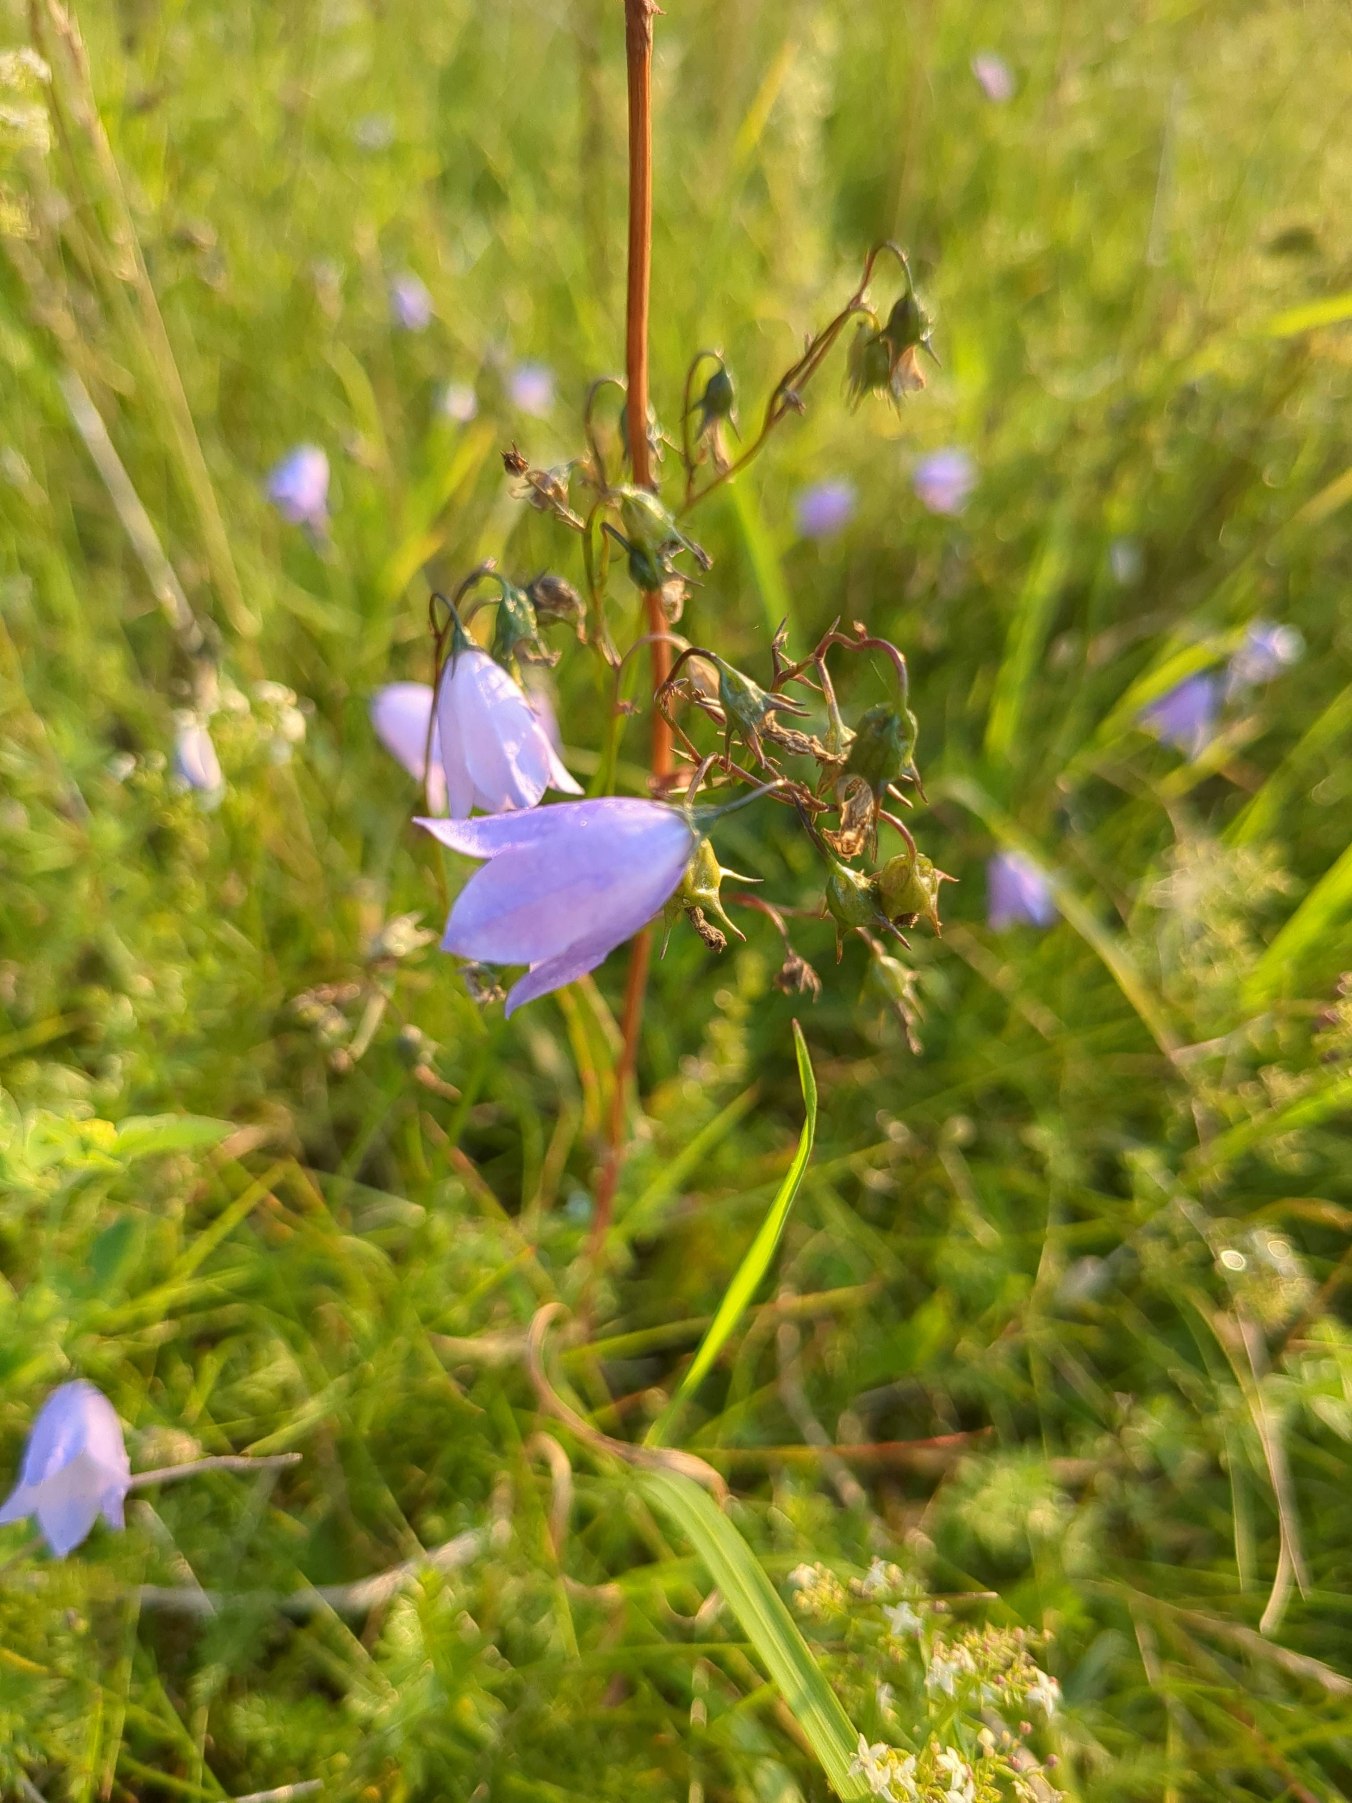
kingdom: Plantae
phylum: Tracheophyta
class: Magnoliopsida
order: Asterales
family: Campanulaceae
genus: Campanula
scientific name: Campanula rotundifolia
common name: Liden klokke
